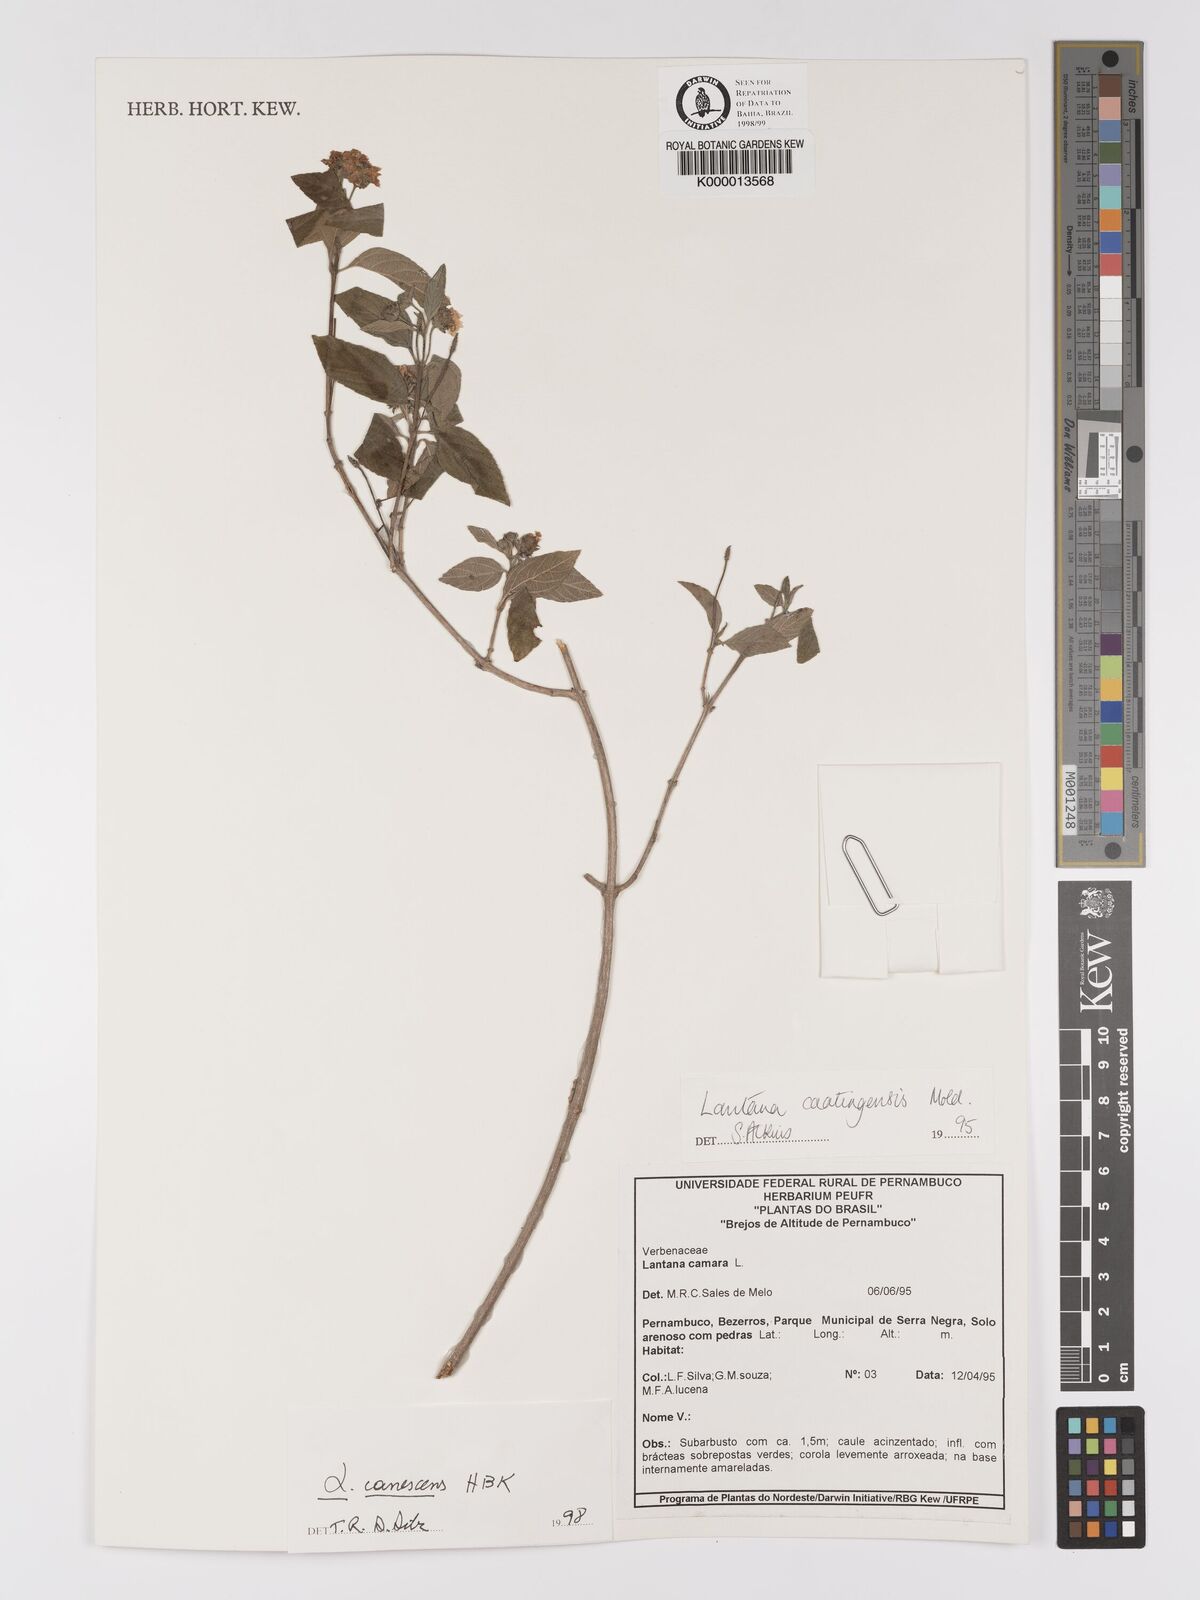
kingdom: Plantae
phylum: Tracheophyta
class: Magnoliopsida
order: Lamiales
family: Verbenaceae
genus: Lantana
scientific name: Lantana canescens
